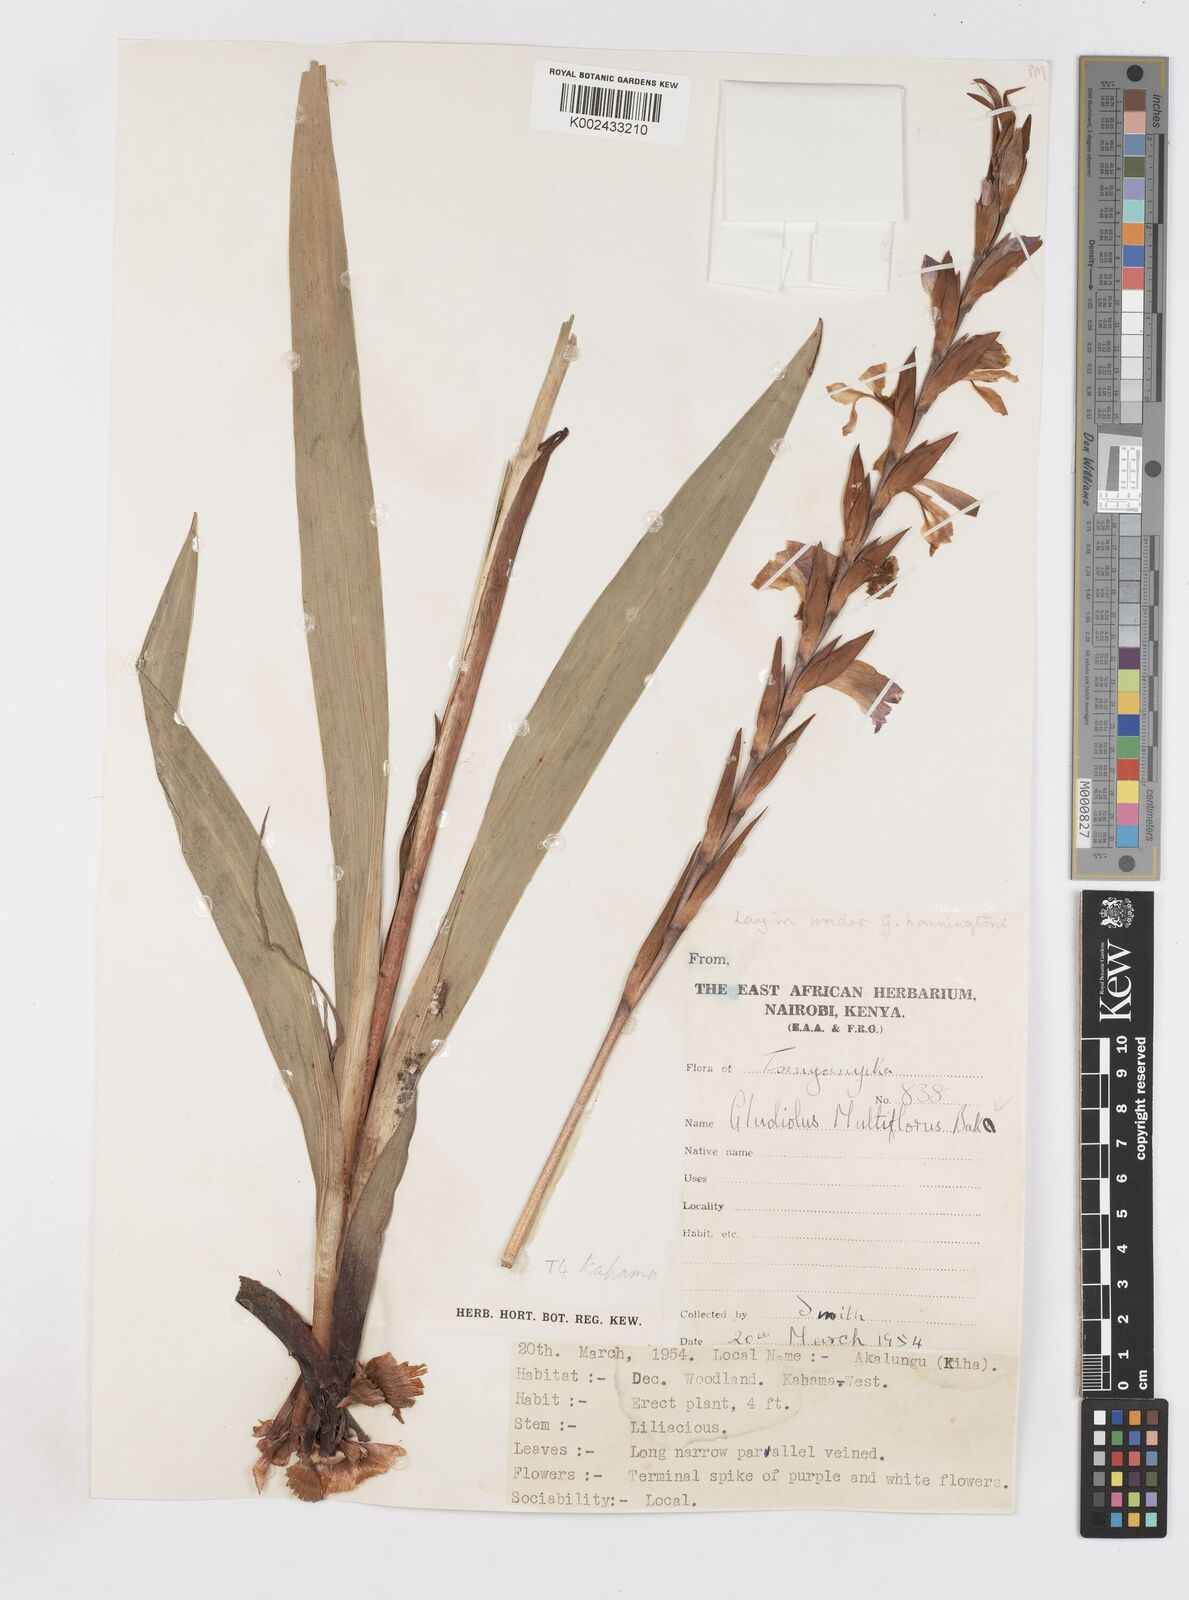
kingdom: Plantae
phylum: Tracheophyta
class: Liliopsida
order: Asparagales
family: Iridaceae
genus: Gladiolus
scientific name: Gladiolus gregarius
